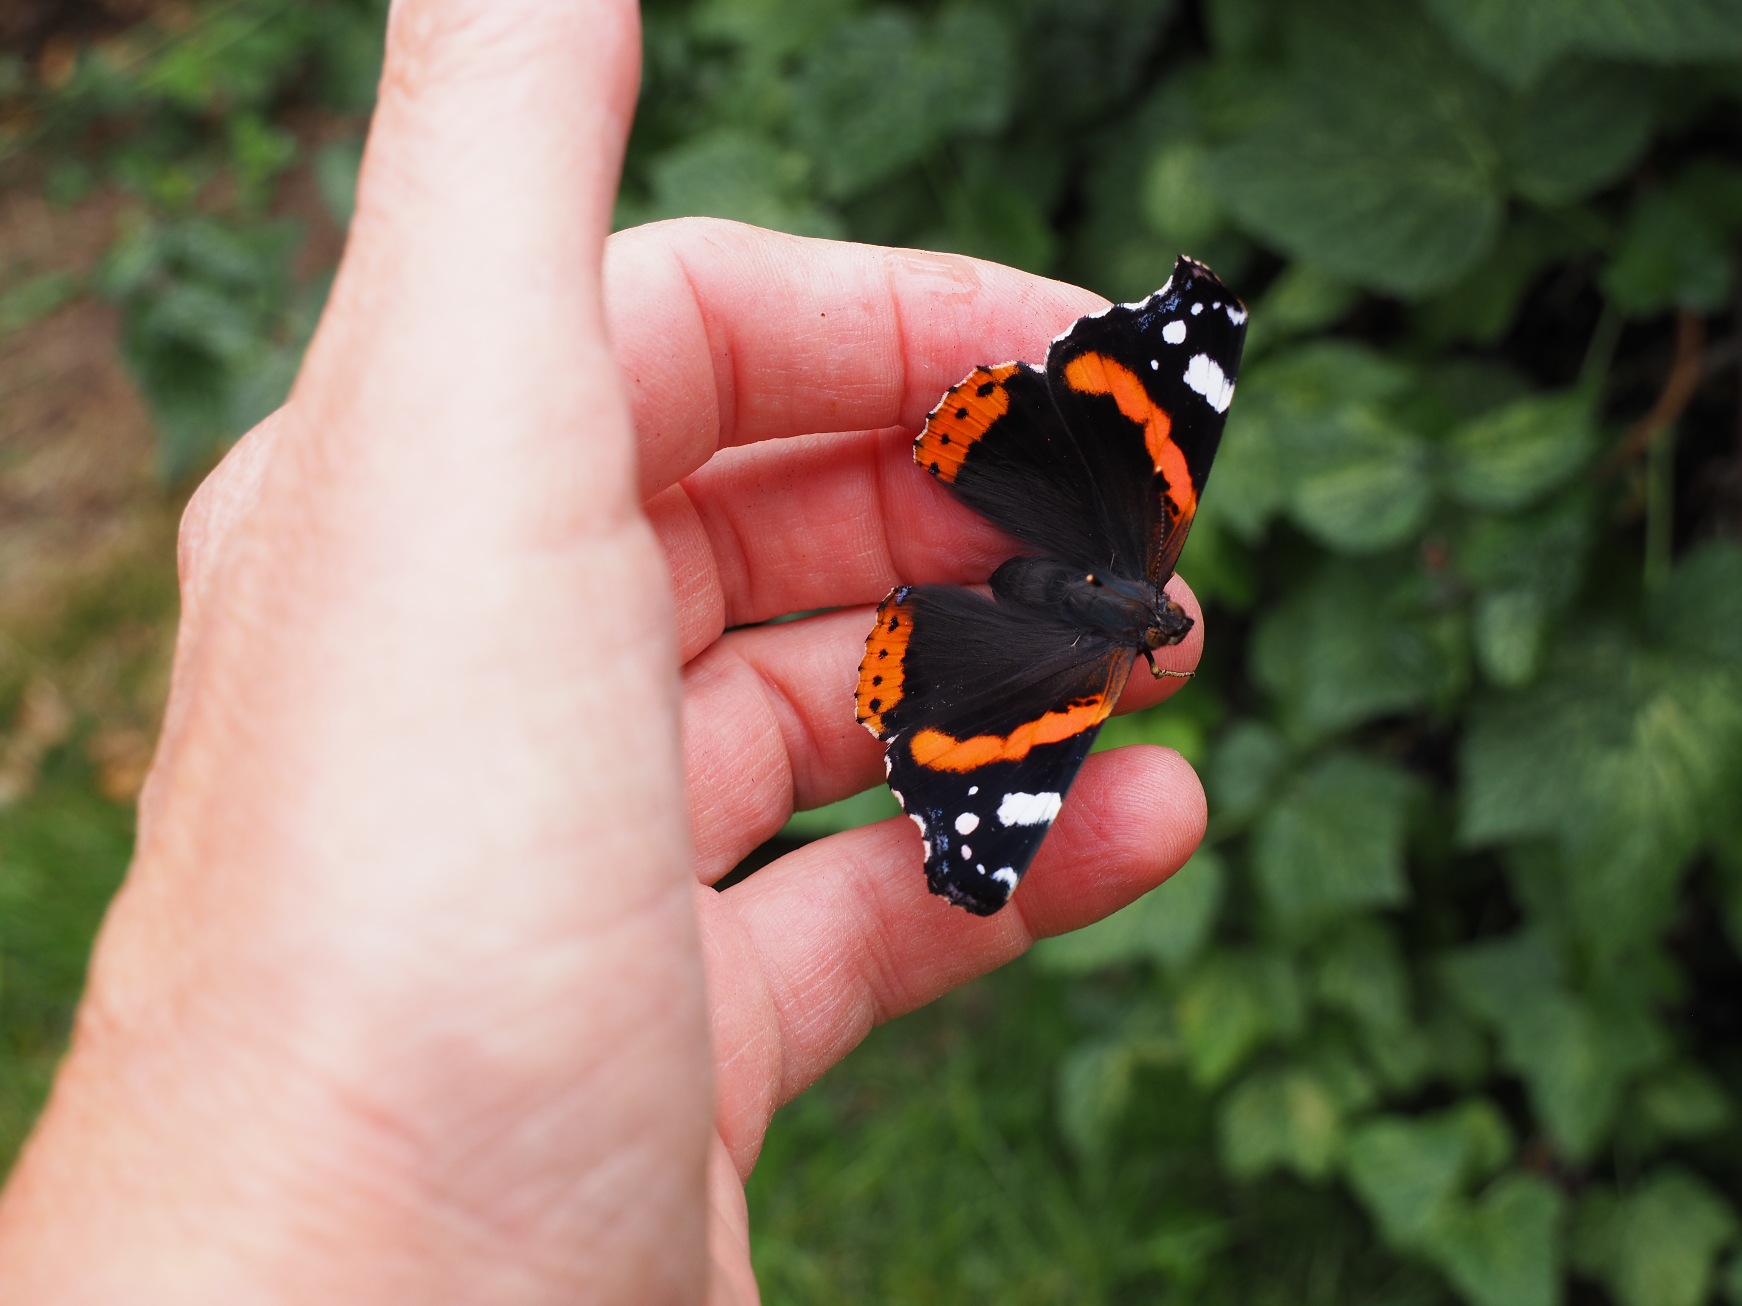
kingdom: Animalia
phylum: Arthropoda
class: Insecta
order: Lepidoptera
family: Nymphalidae
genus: Vanessa
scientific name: Vanessa atalanta
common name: Admiral
